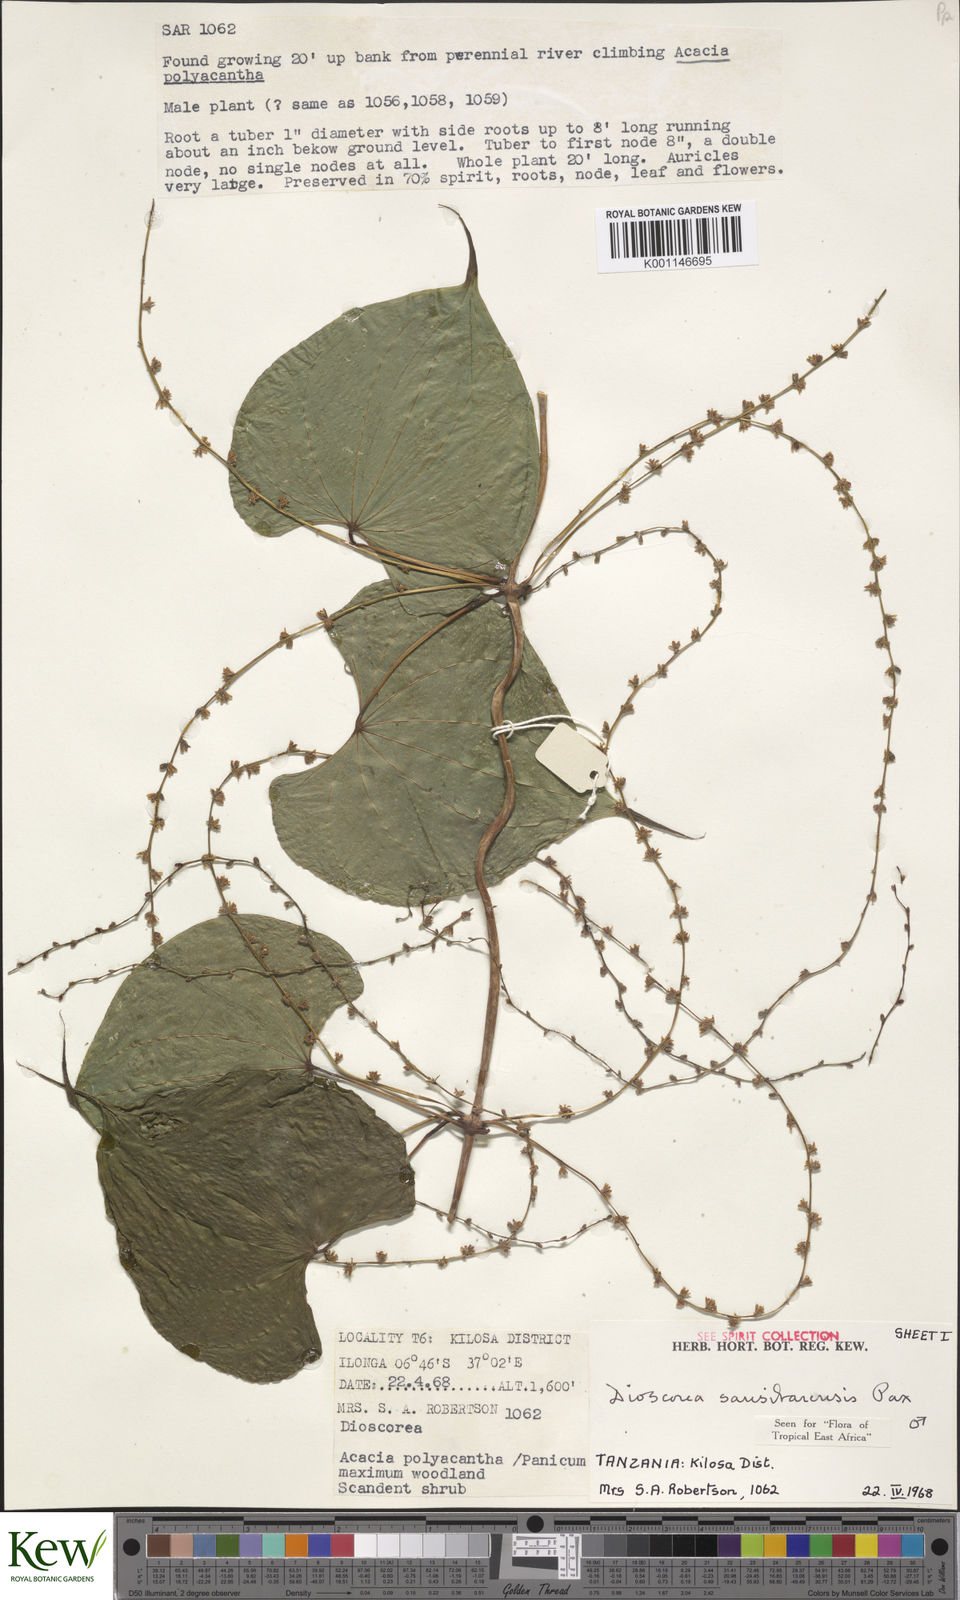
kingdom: Plantae
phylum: Tracheophyta
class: Liliopsida
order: Dioscoreales
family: Dioscoreaceae
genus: Dioscorea
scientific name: Dioscorea sansibarensis
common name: Zanzibar yam
